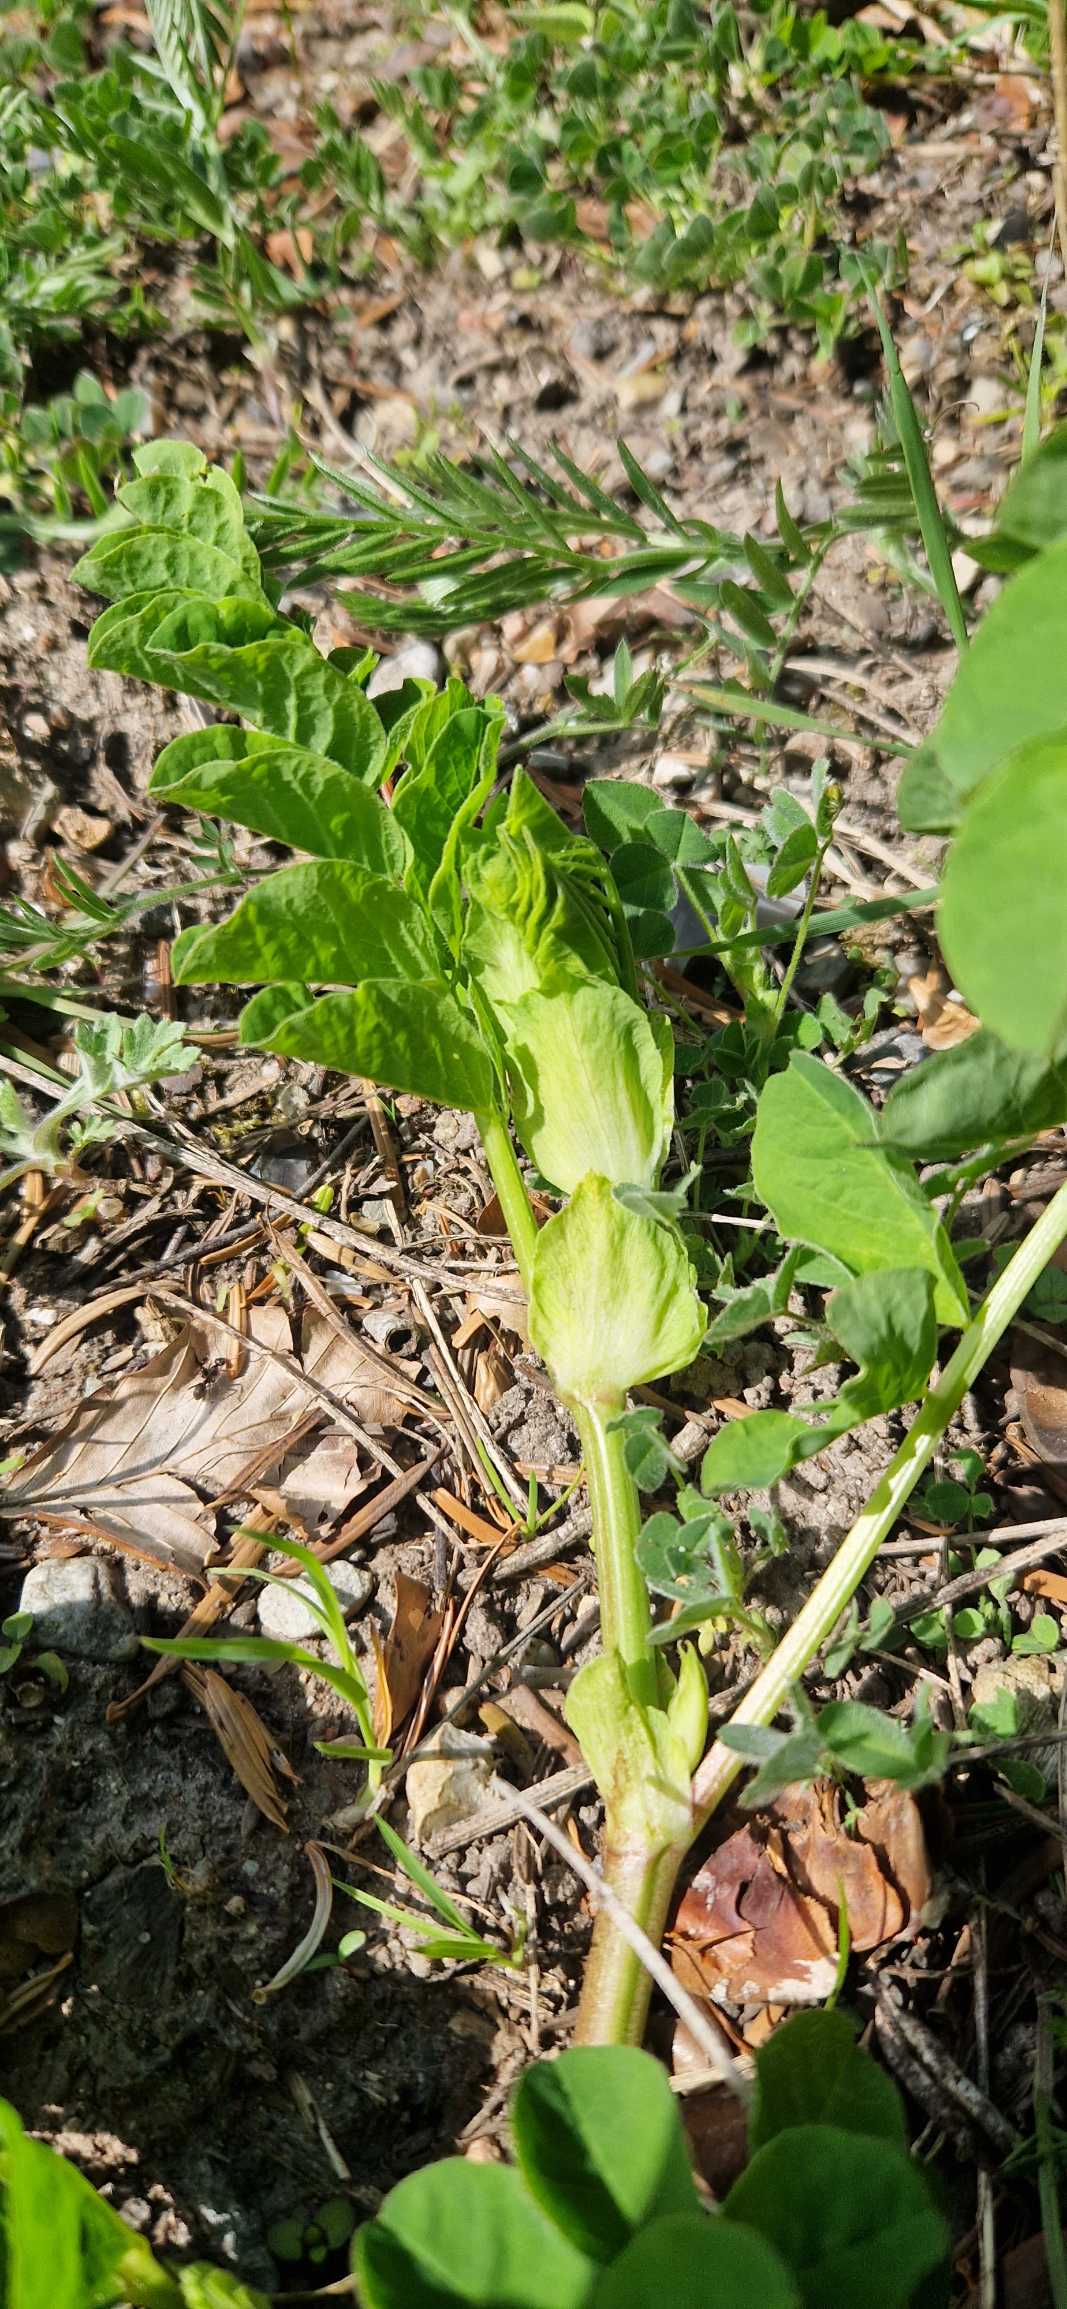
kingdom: Plantae
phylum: Tracheophyta
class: Magnoliopsida
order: Fabales
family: Fabaceae
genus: Astragalus
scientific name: Astragalus glycyphyllos
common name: Sød astragel
